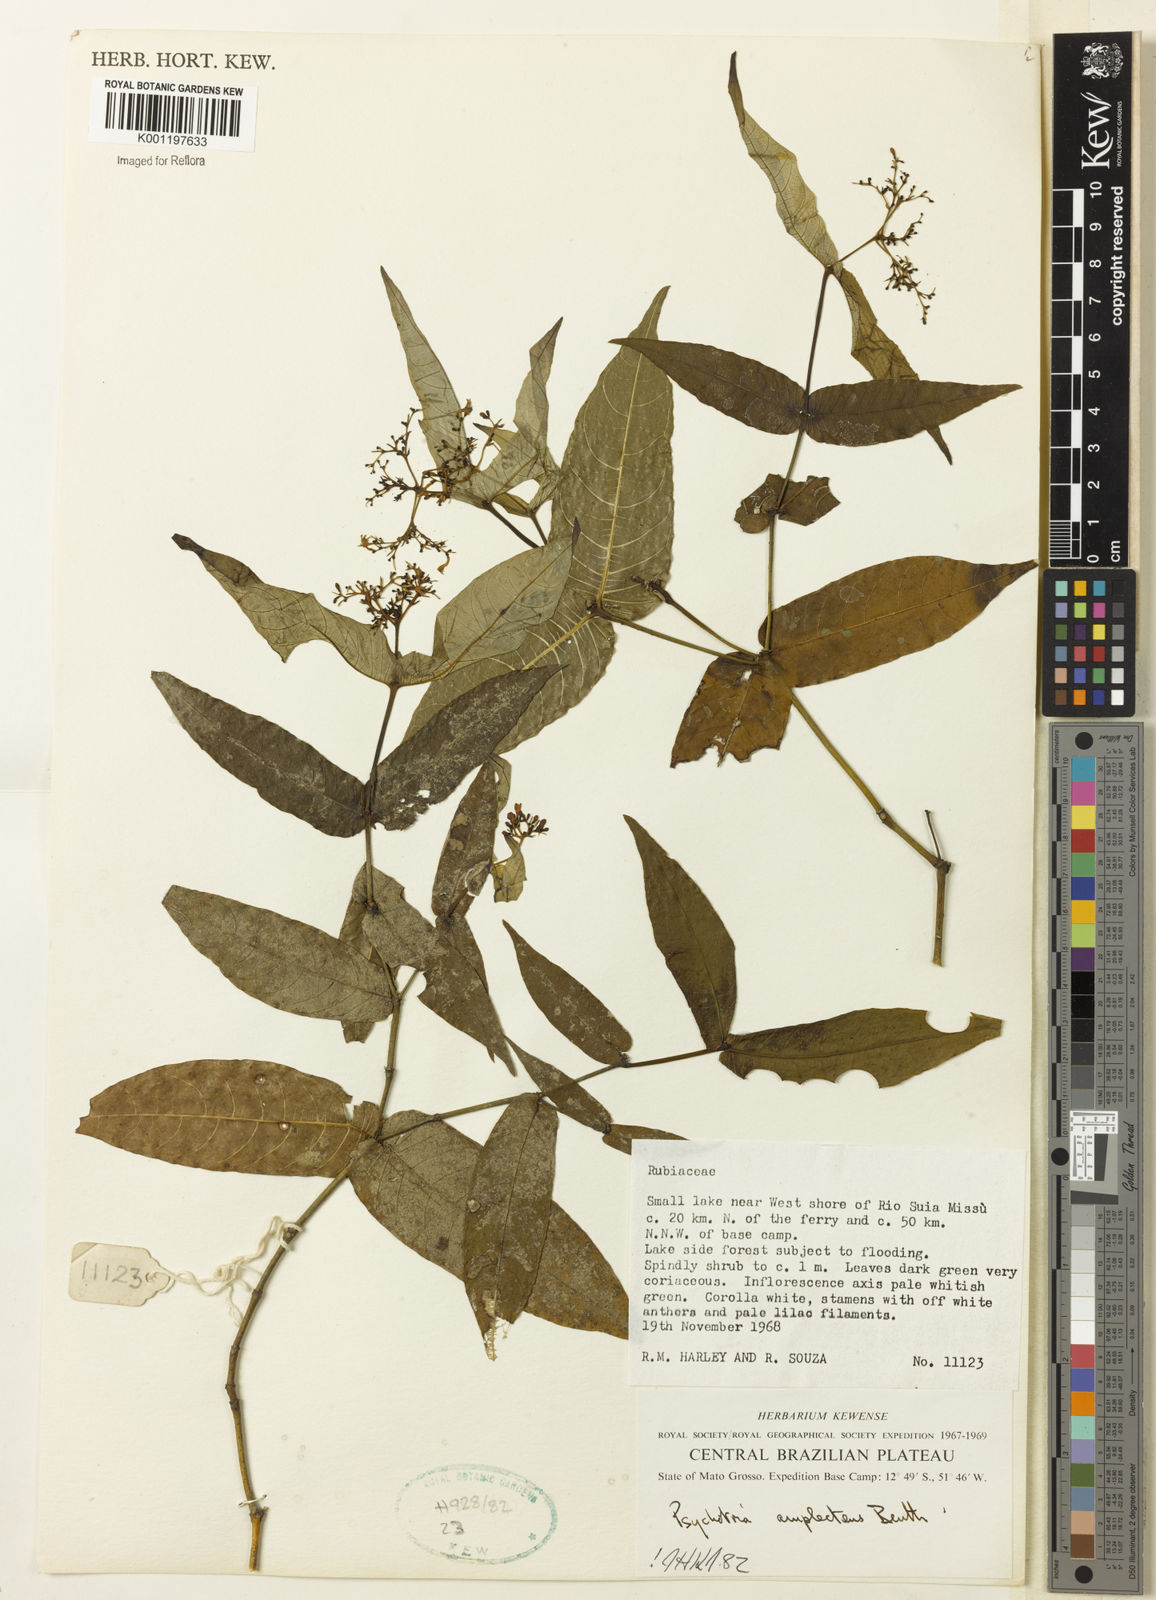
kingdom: Plantae
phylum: Tracheophyta
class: Magnoliopsida
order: Gentianales
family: Rubiaceae
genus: Psychotria
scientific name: Psychotria
